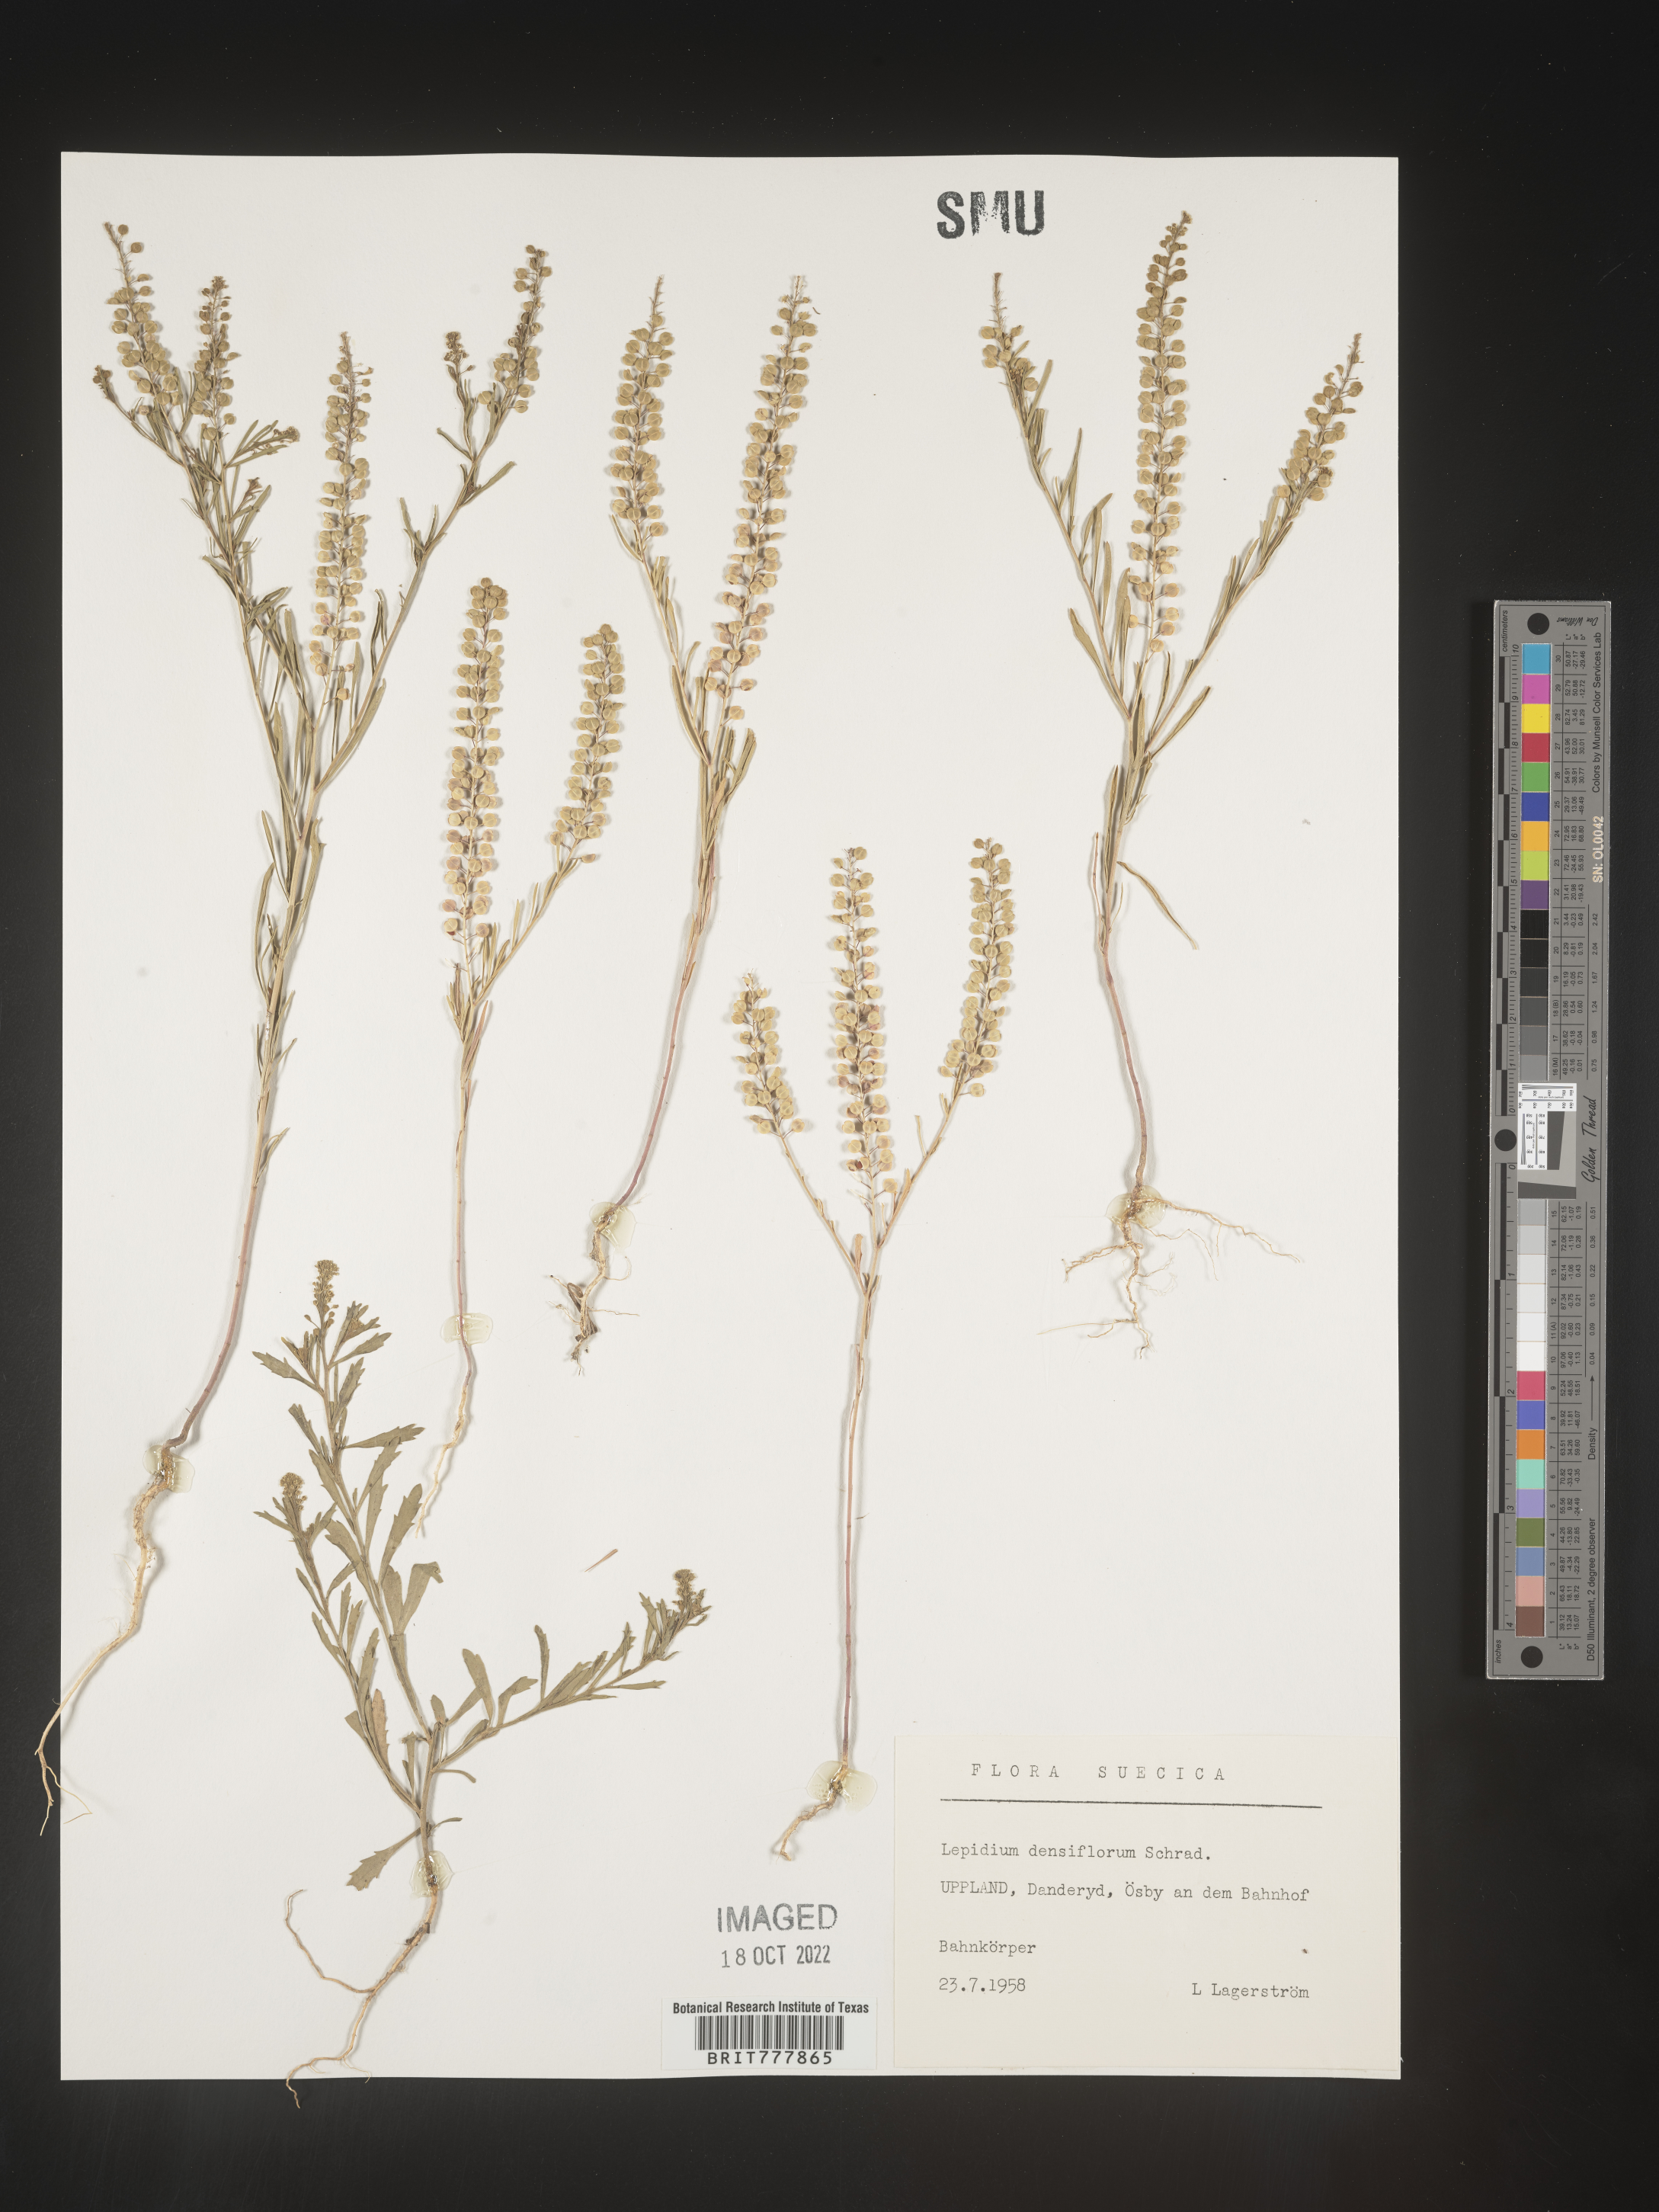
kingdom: Plantae
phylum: Tracheophyta
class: Magnoliopsida
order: Brassicales
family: Brassicaceae
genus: Lepidium
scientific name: Lepidium
